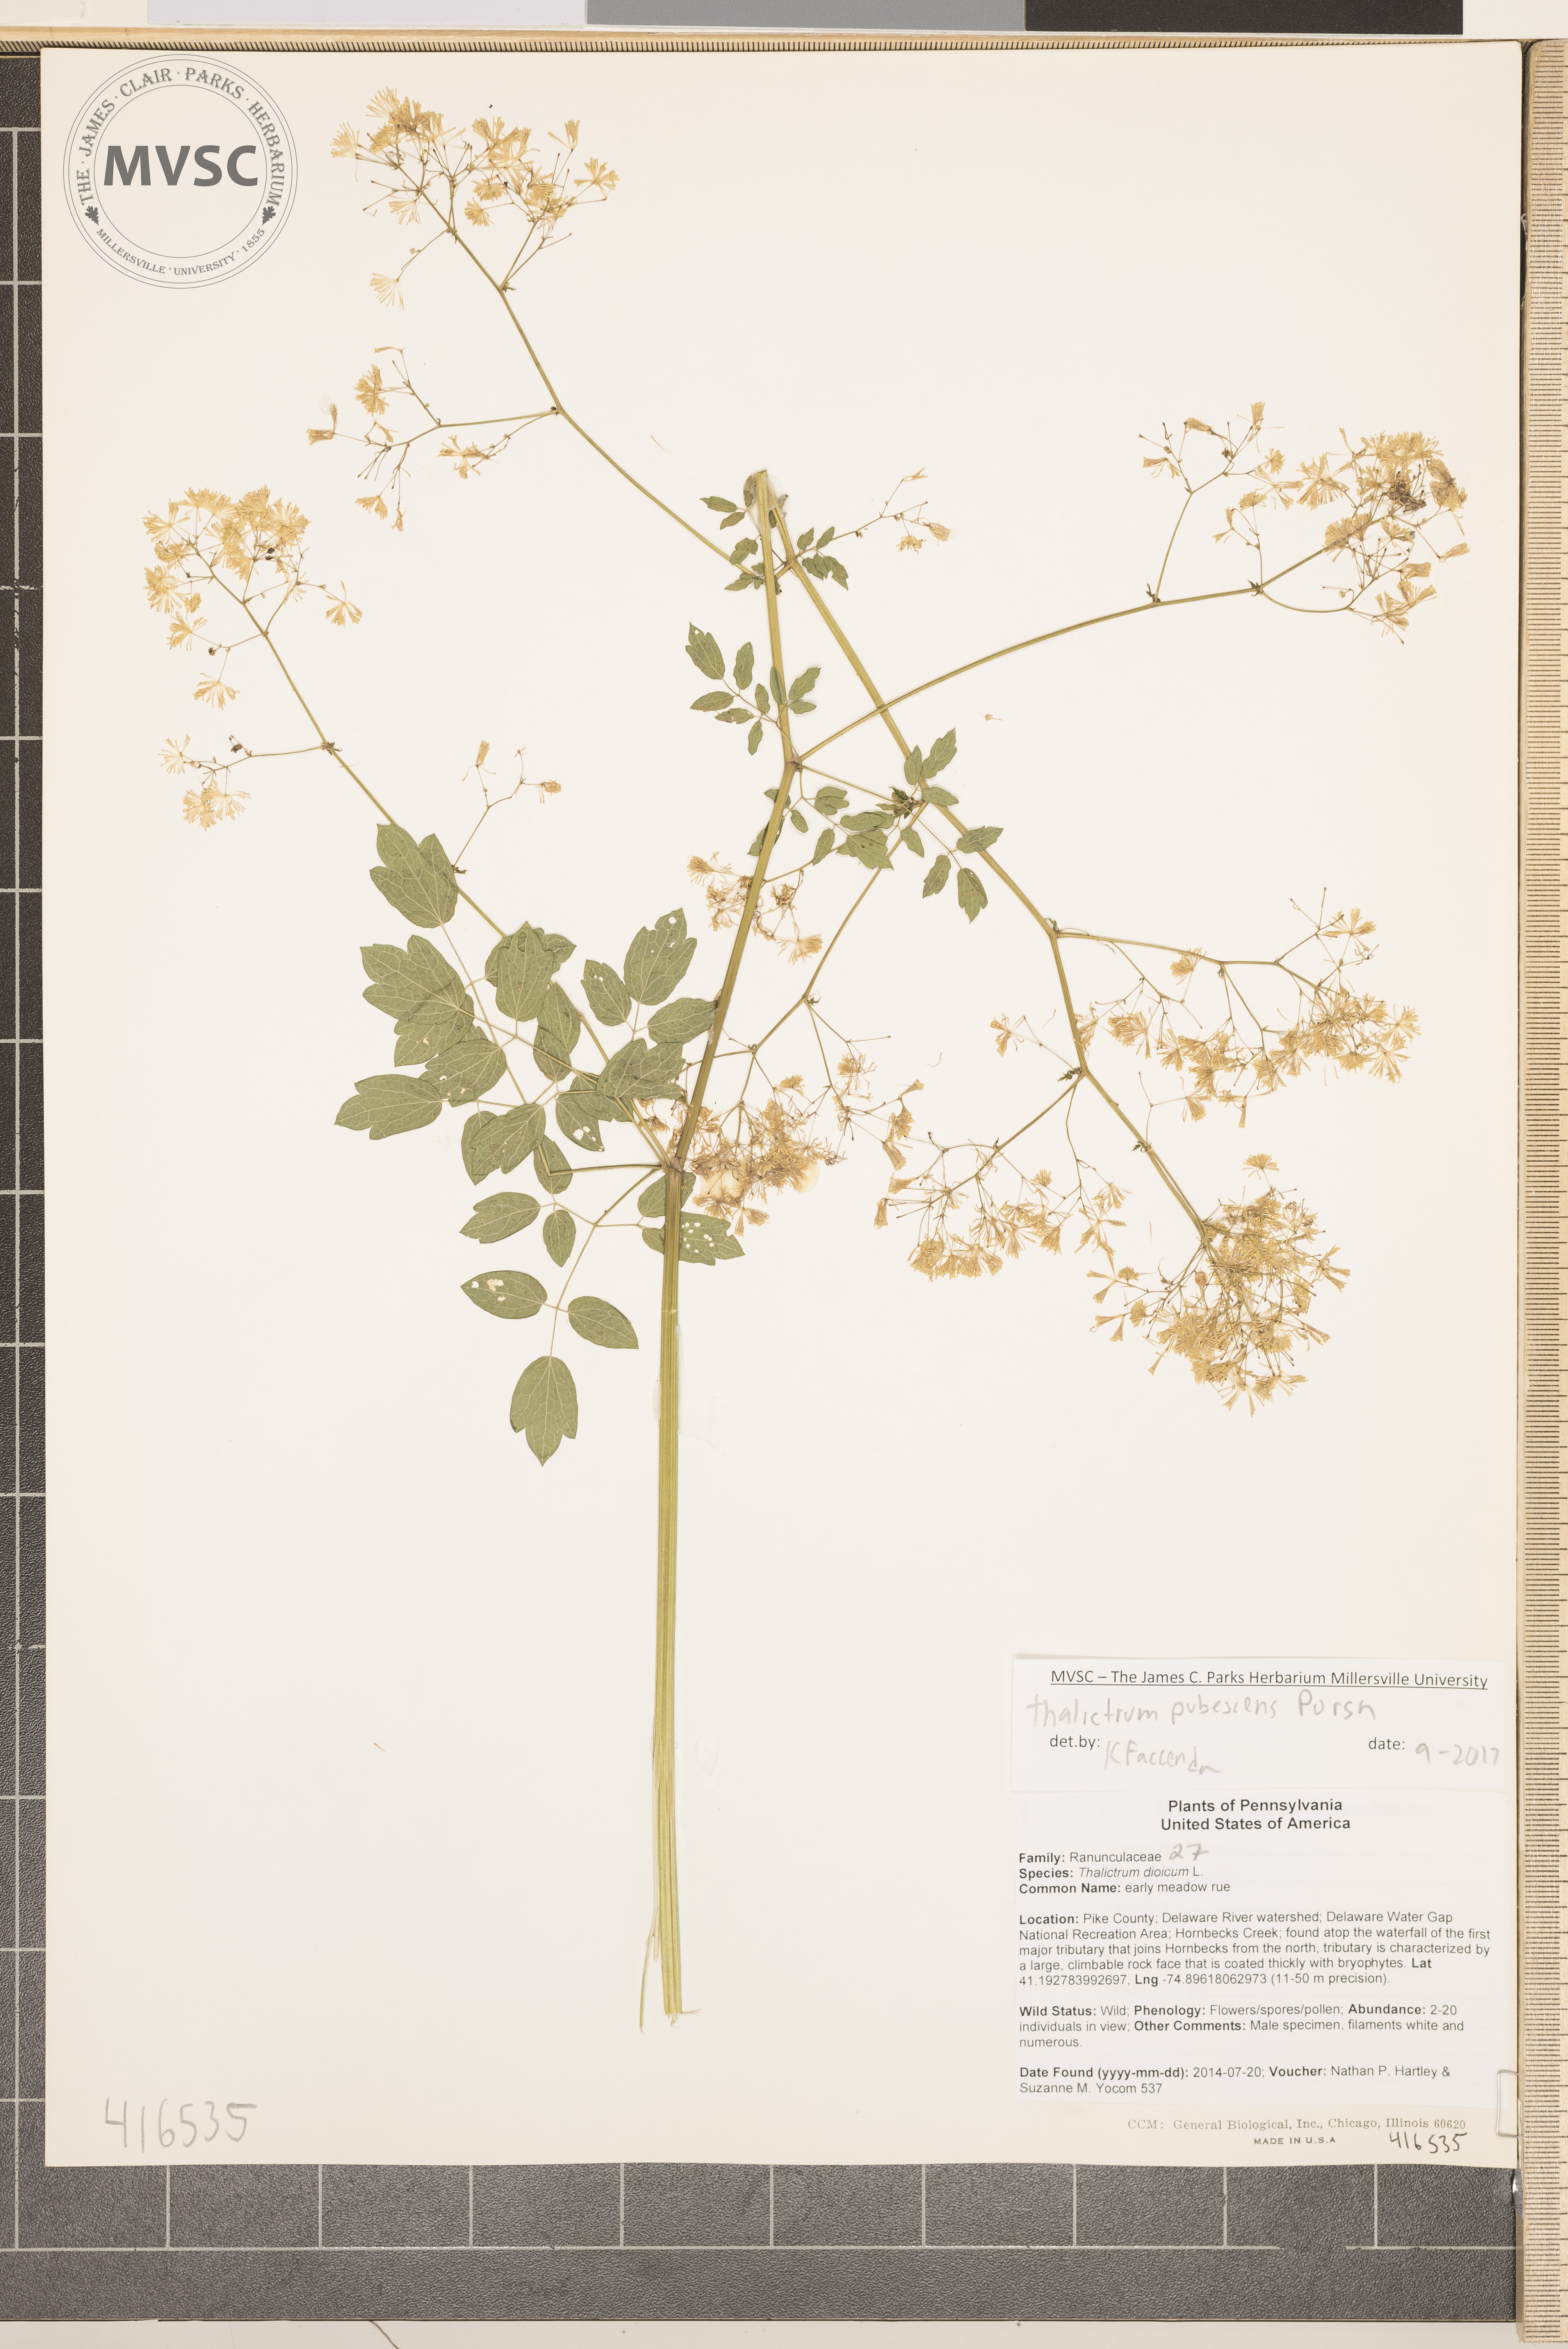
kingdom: Plantae
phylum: Tracheophyta
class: Magnoliopsida
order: Ranunculales
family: Ranunculaceae
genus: Thalictrum
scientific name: Thalictrum pubescens
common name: King-of-the-meadow
